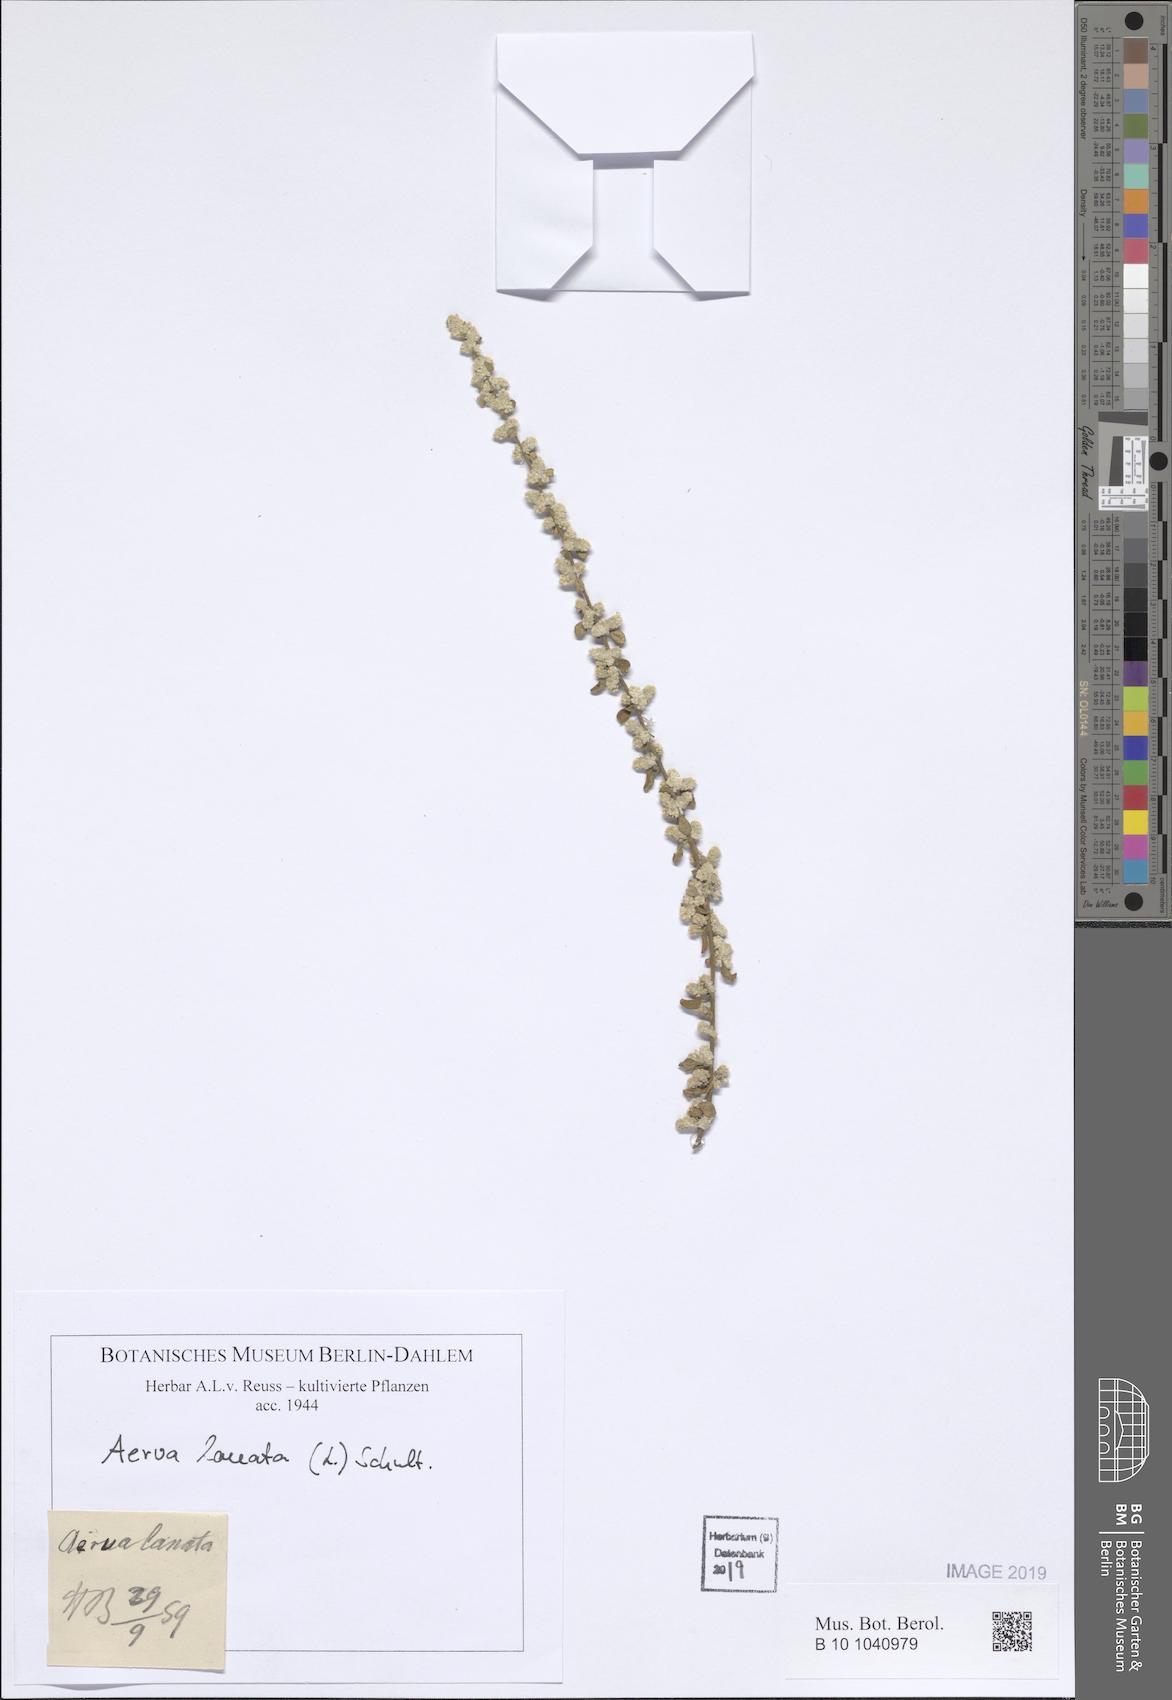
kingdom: Plantae
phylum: Tracheophyta
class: Magnoliopsida
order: Caryophyllales
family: Amaranthaceae
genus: Ouret
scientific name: Ouret lanata
